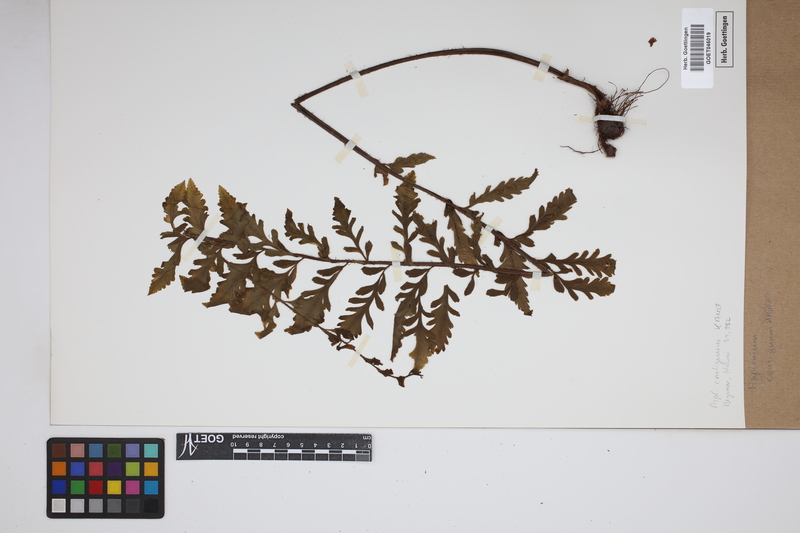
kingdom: Plantae
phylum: Tracheophyta
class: Polypodiopsida
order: Polypodiales
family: Aspleniaceae
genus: Asplenium
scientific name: Asplenium contiguum
